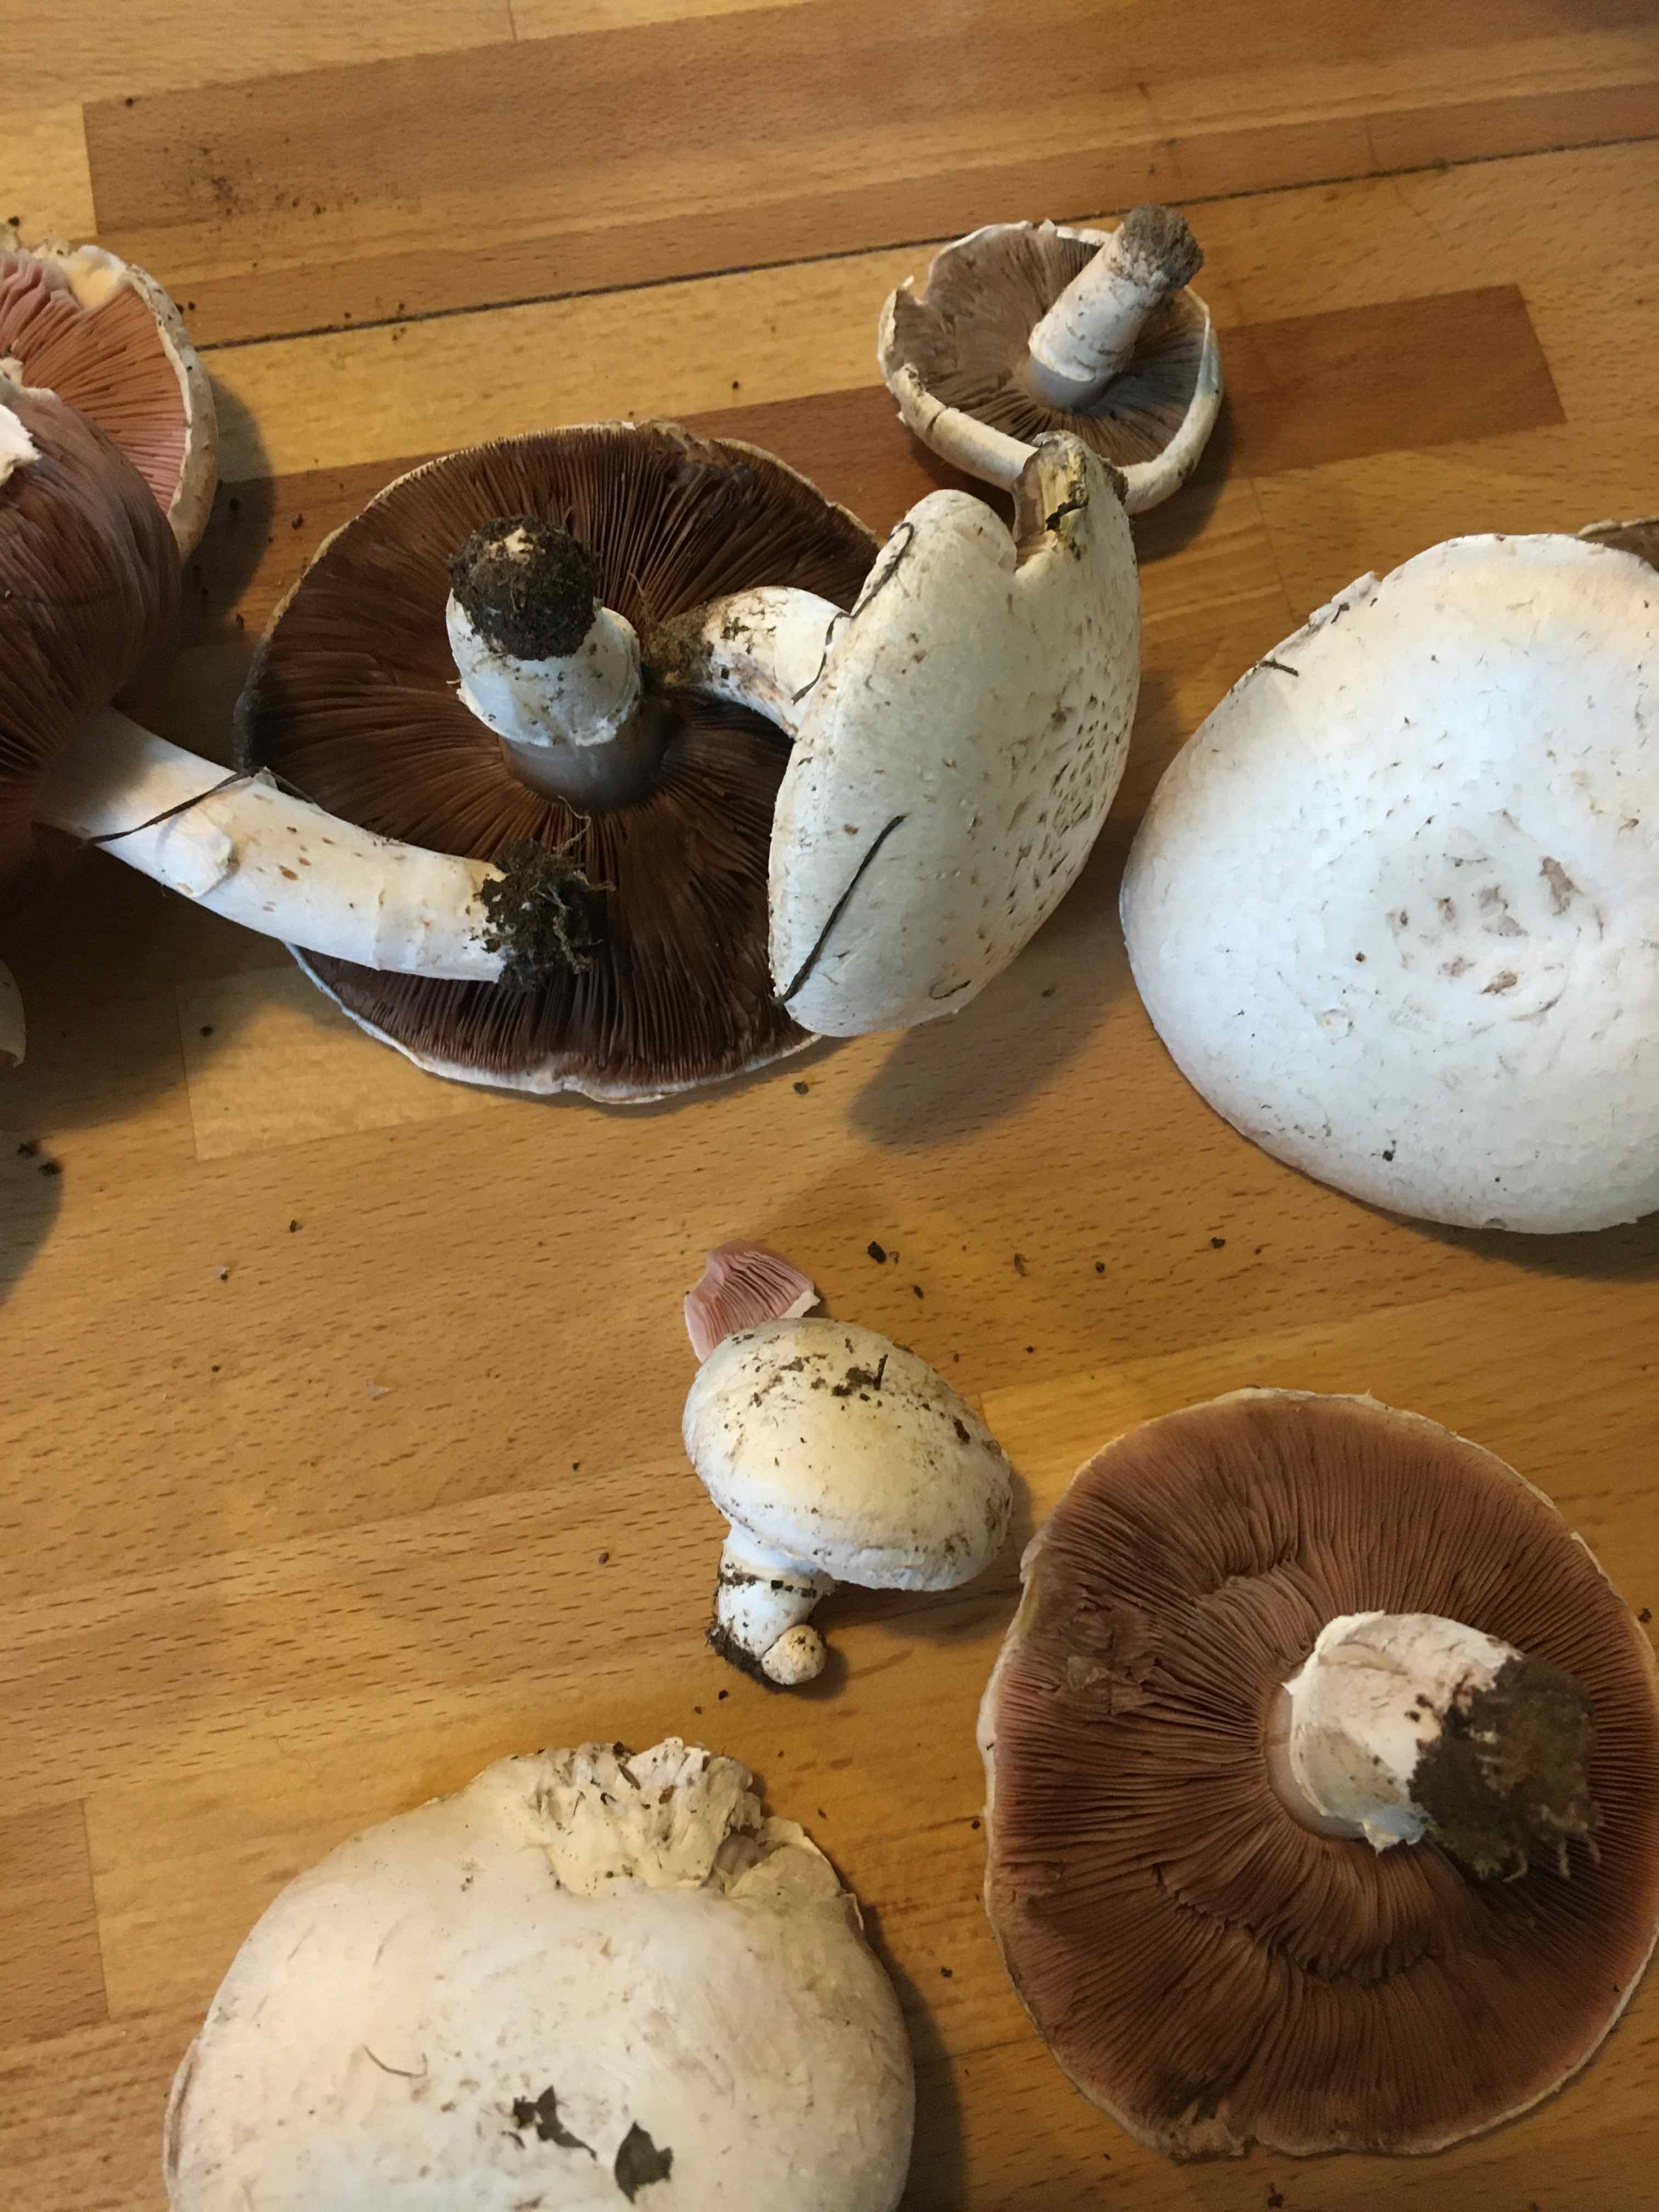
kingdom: Fungi
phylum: Basidiomycota
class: Agaricomycetes
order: Agaricales
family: Agaricaceae
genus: Agaricus
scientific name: Agaricus
